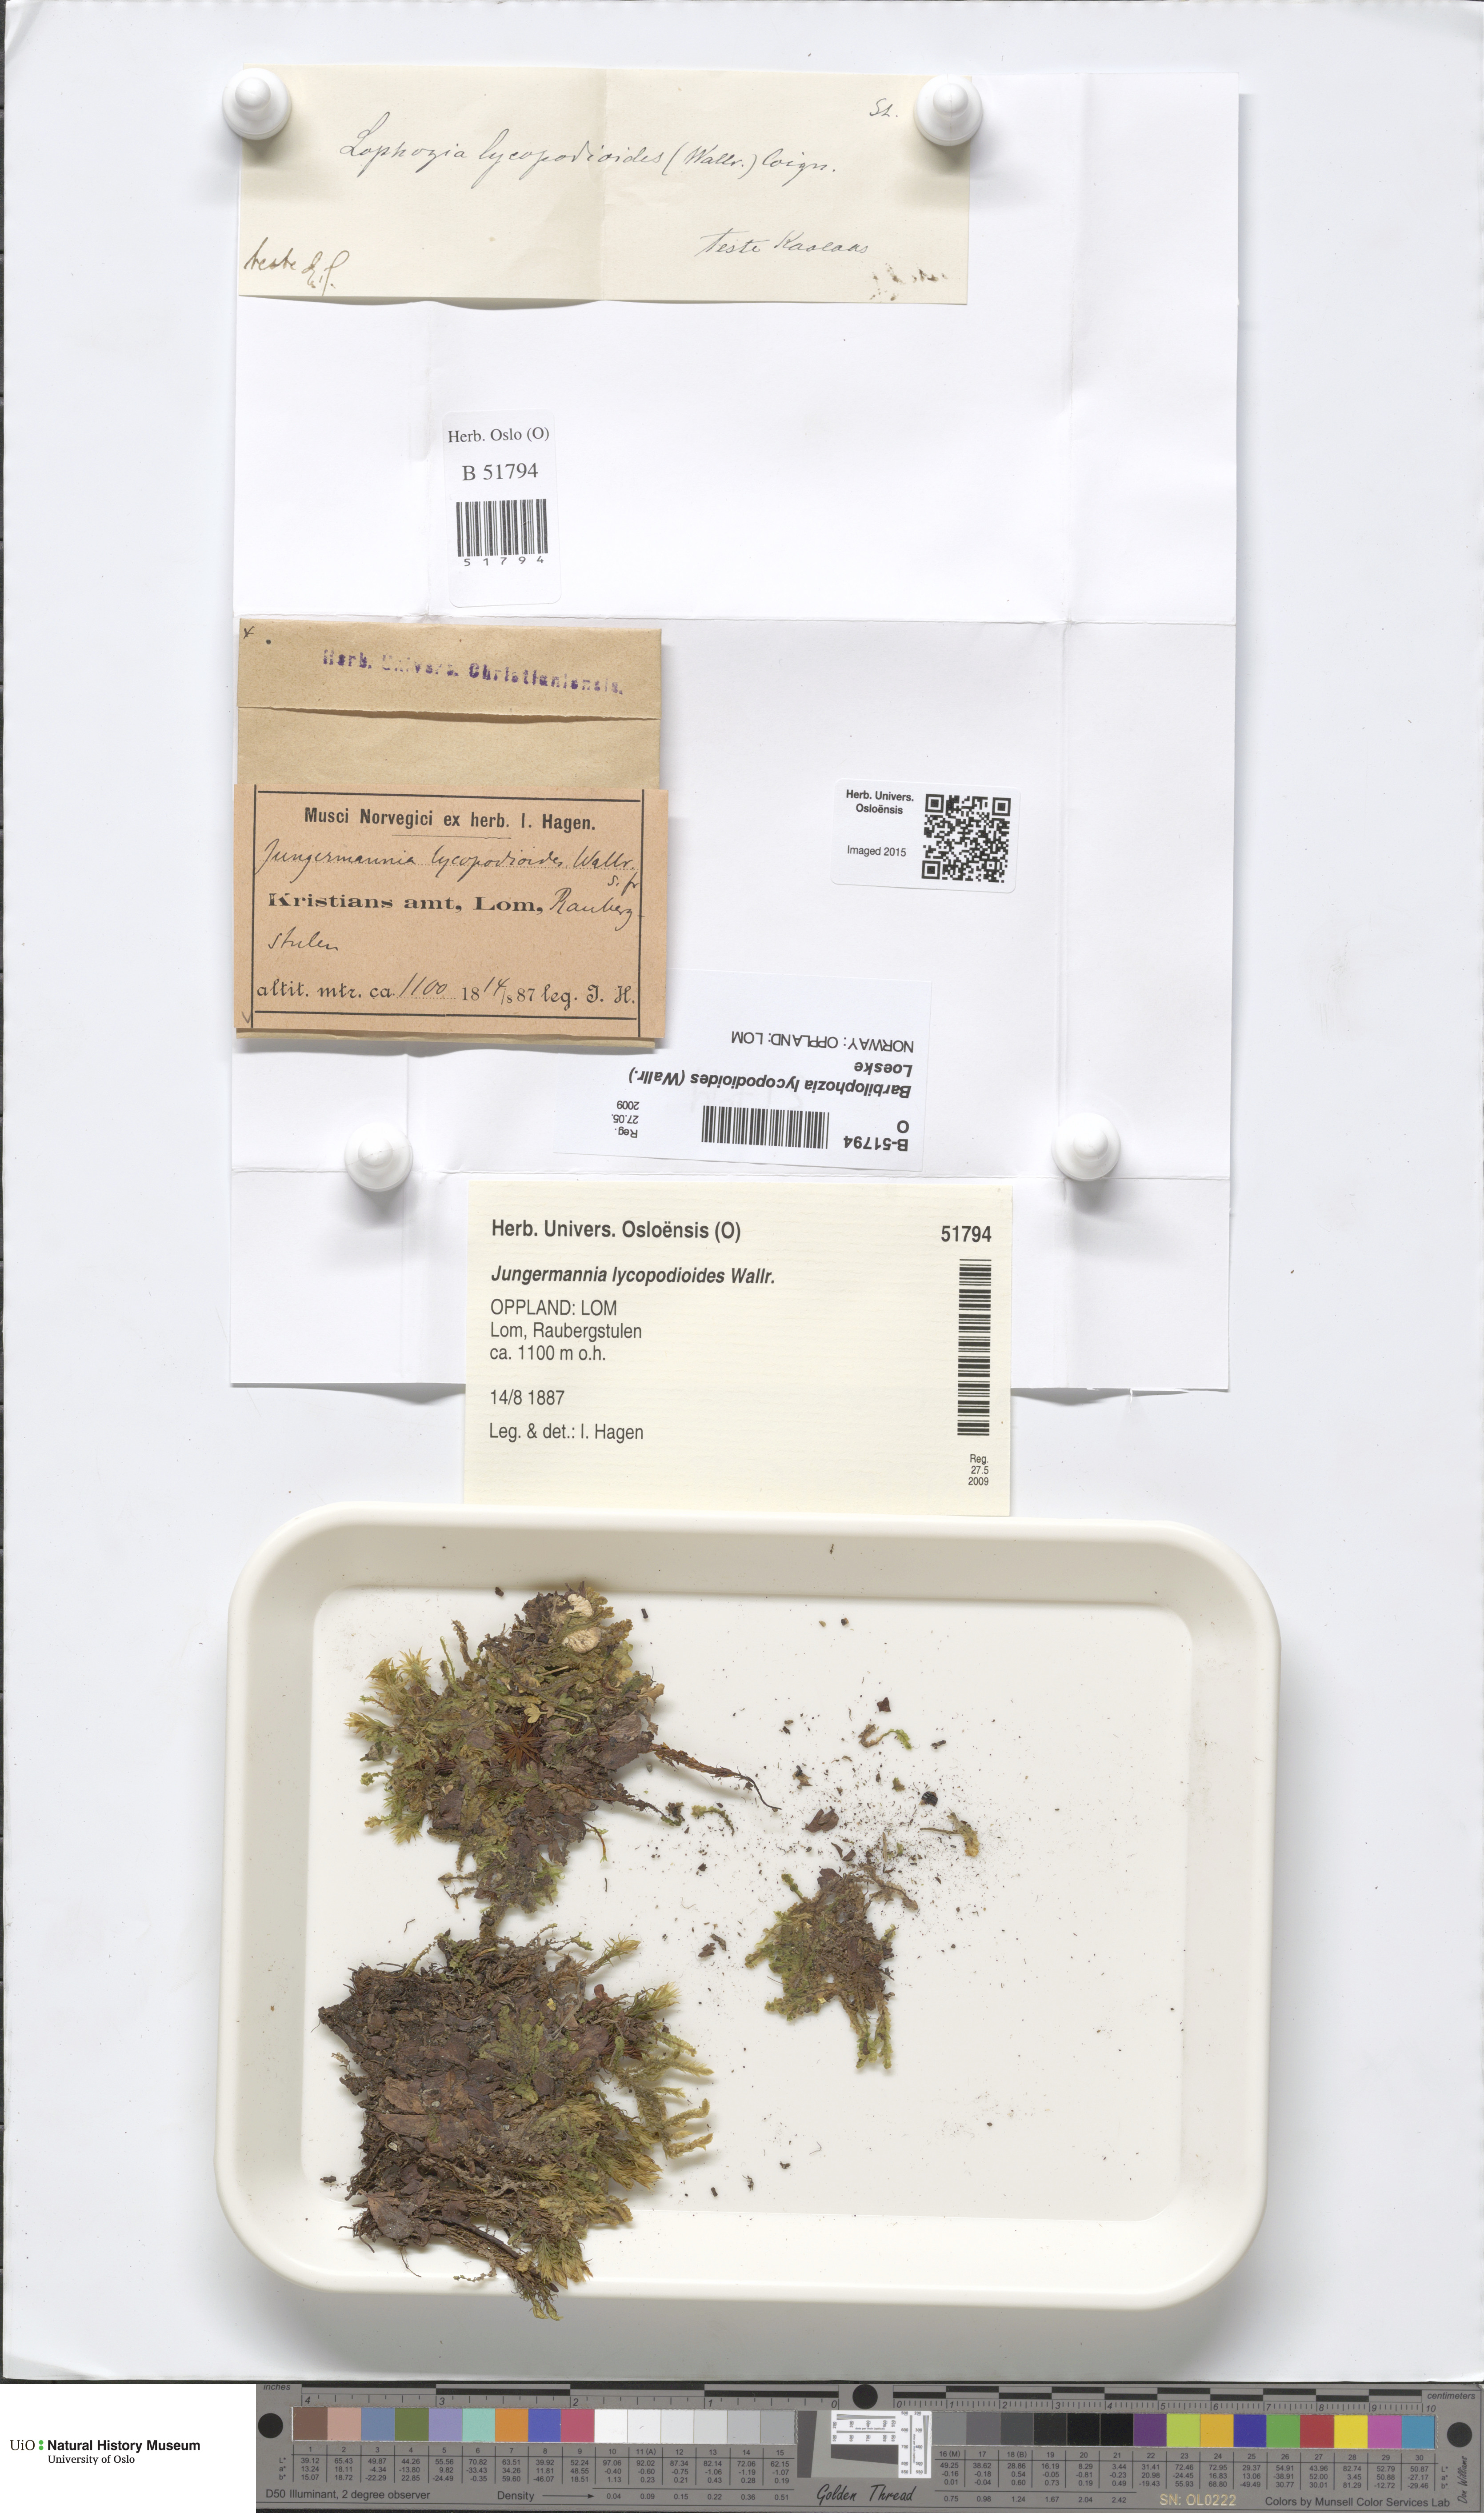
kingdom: Plantae
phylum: Marchantiophyta
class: Jungermanniopsida
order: Jungermanniales
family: Anastrophyllaceae
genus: Barbilophozia
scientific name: Barbilophozia lycopodioides
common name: Greater pawwort
